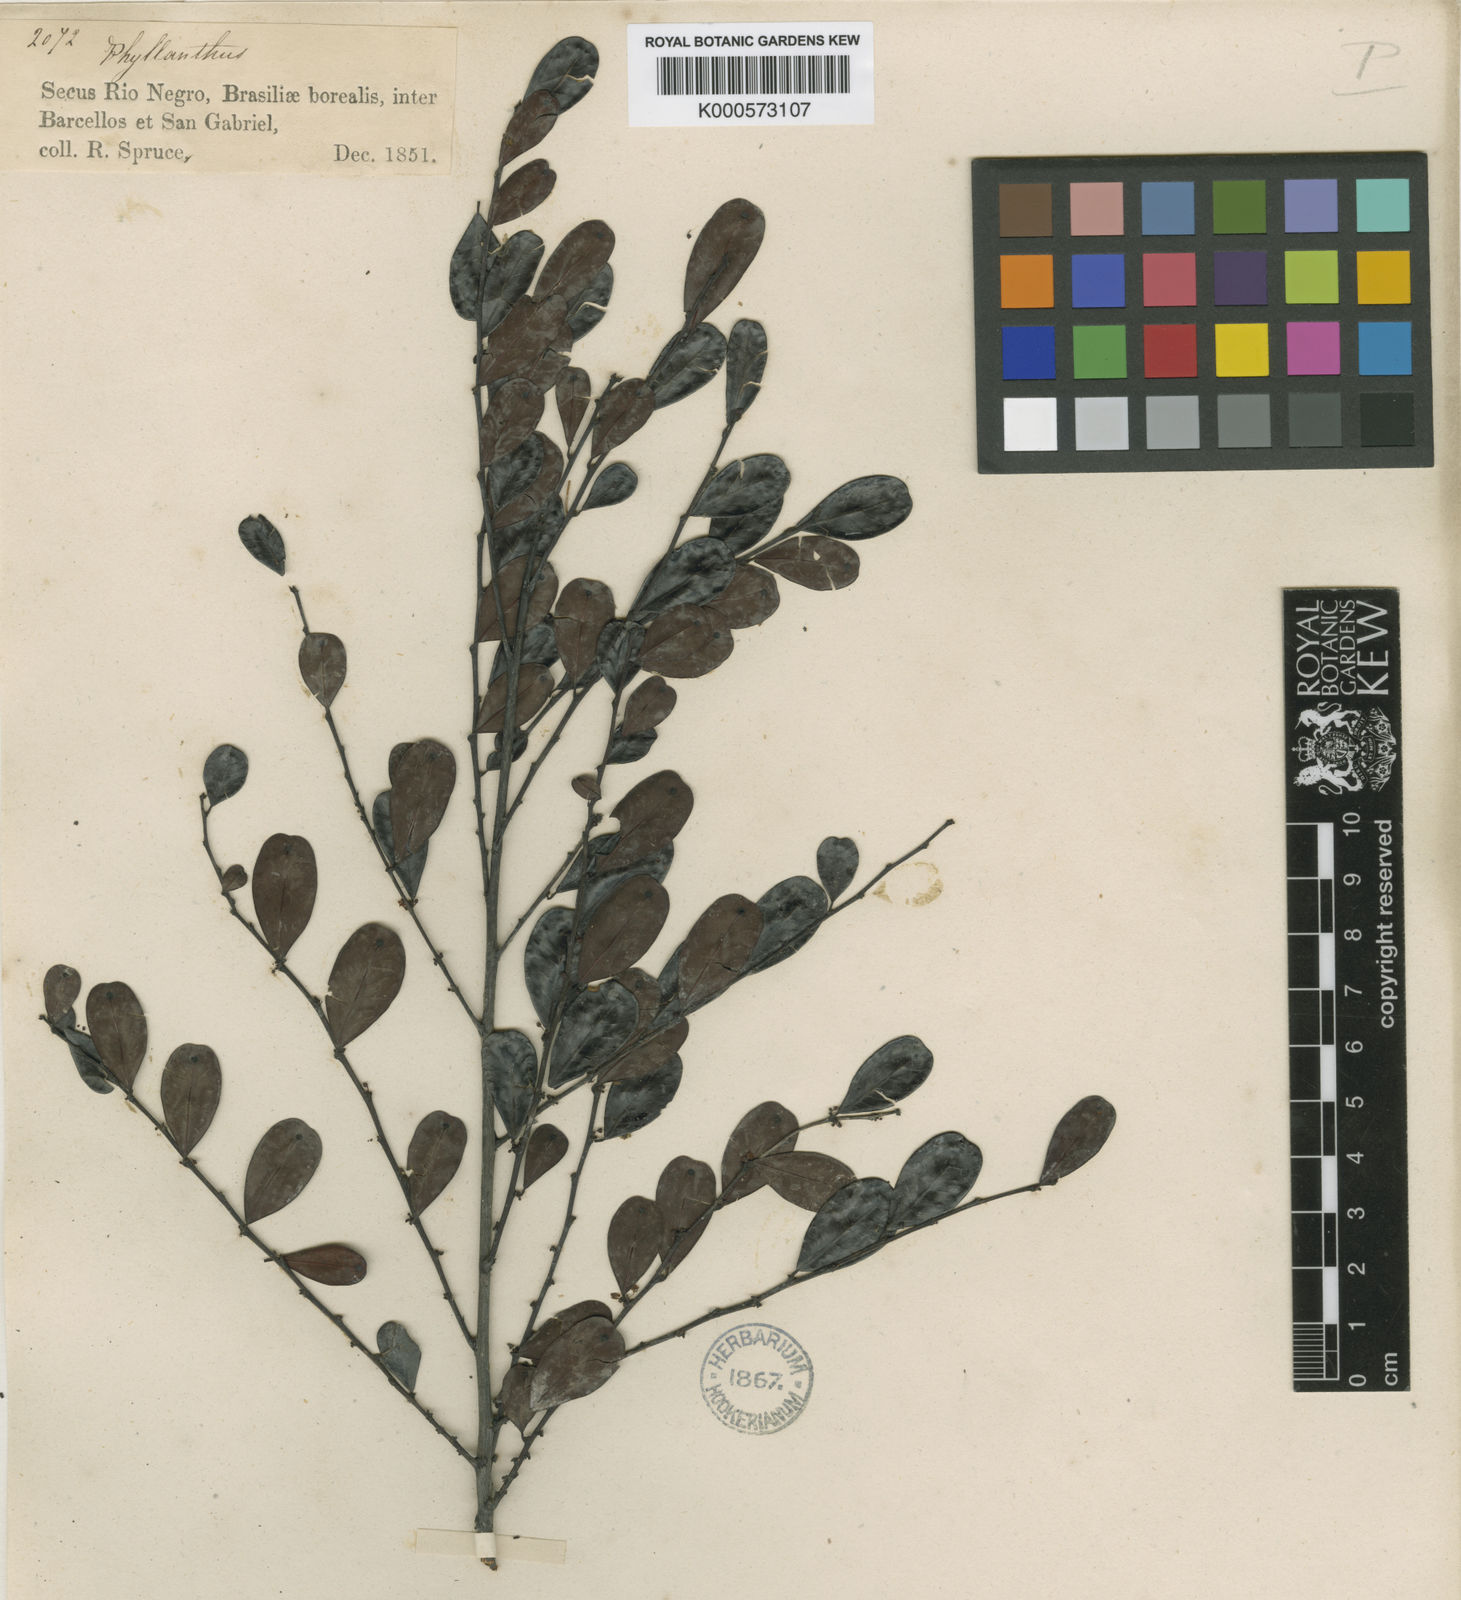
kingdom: Plantae
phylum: Tracheophyta
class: Magnoliopsida
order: Malpighiales
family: Phyllanthaceae
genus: Phyllanthus
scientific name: Phyllanthus
